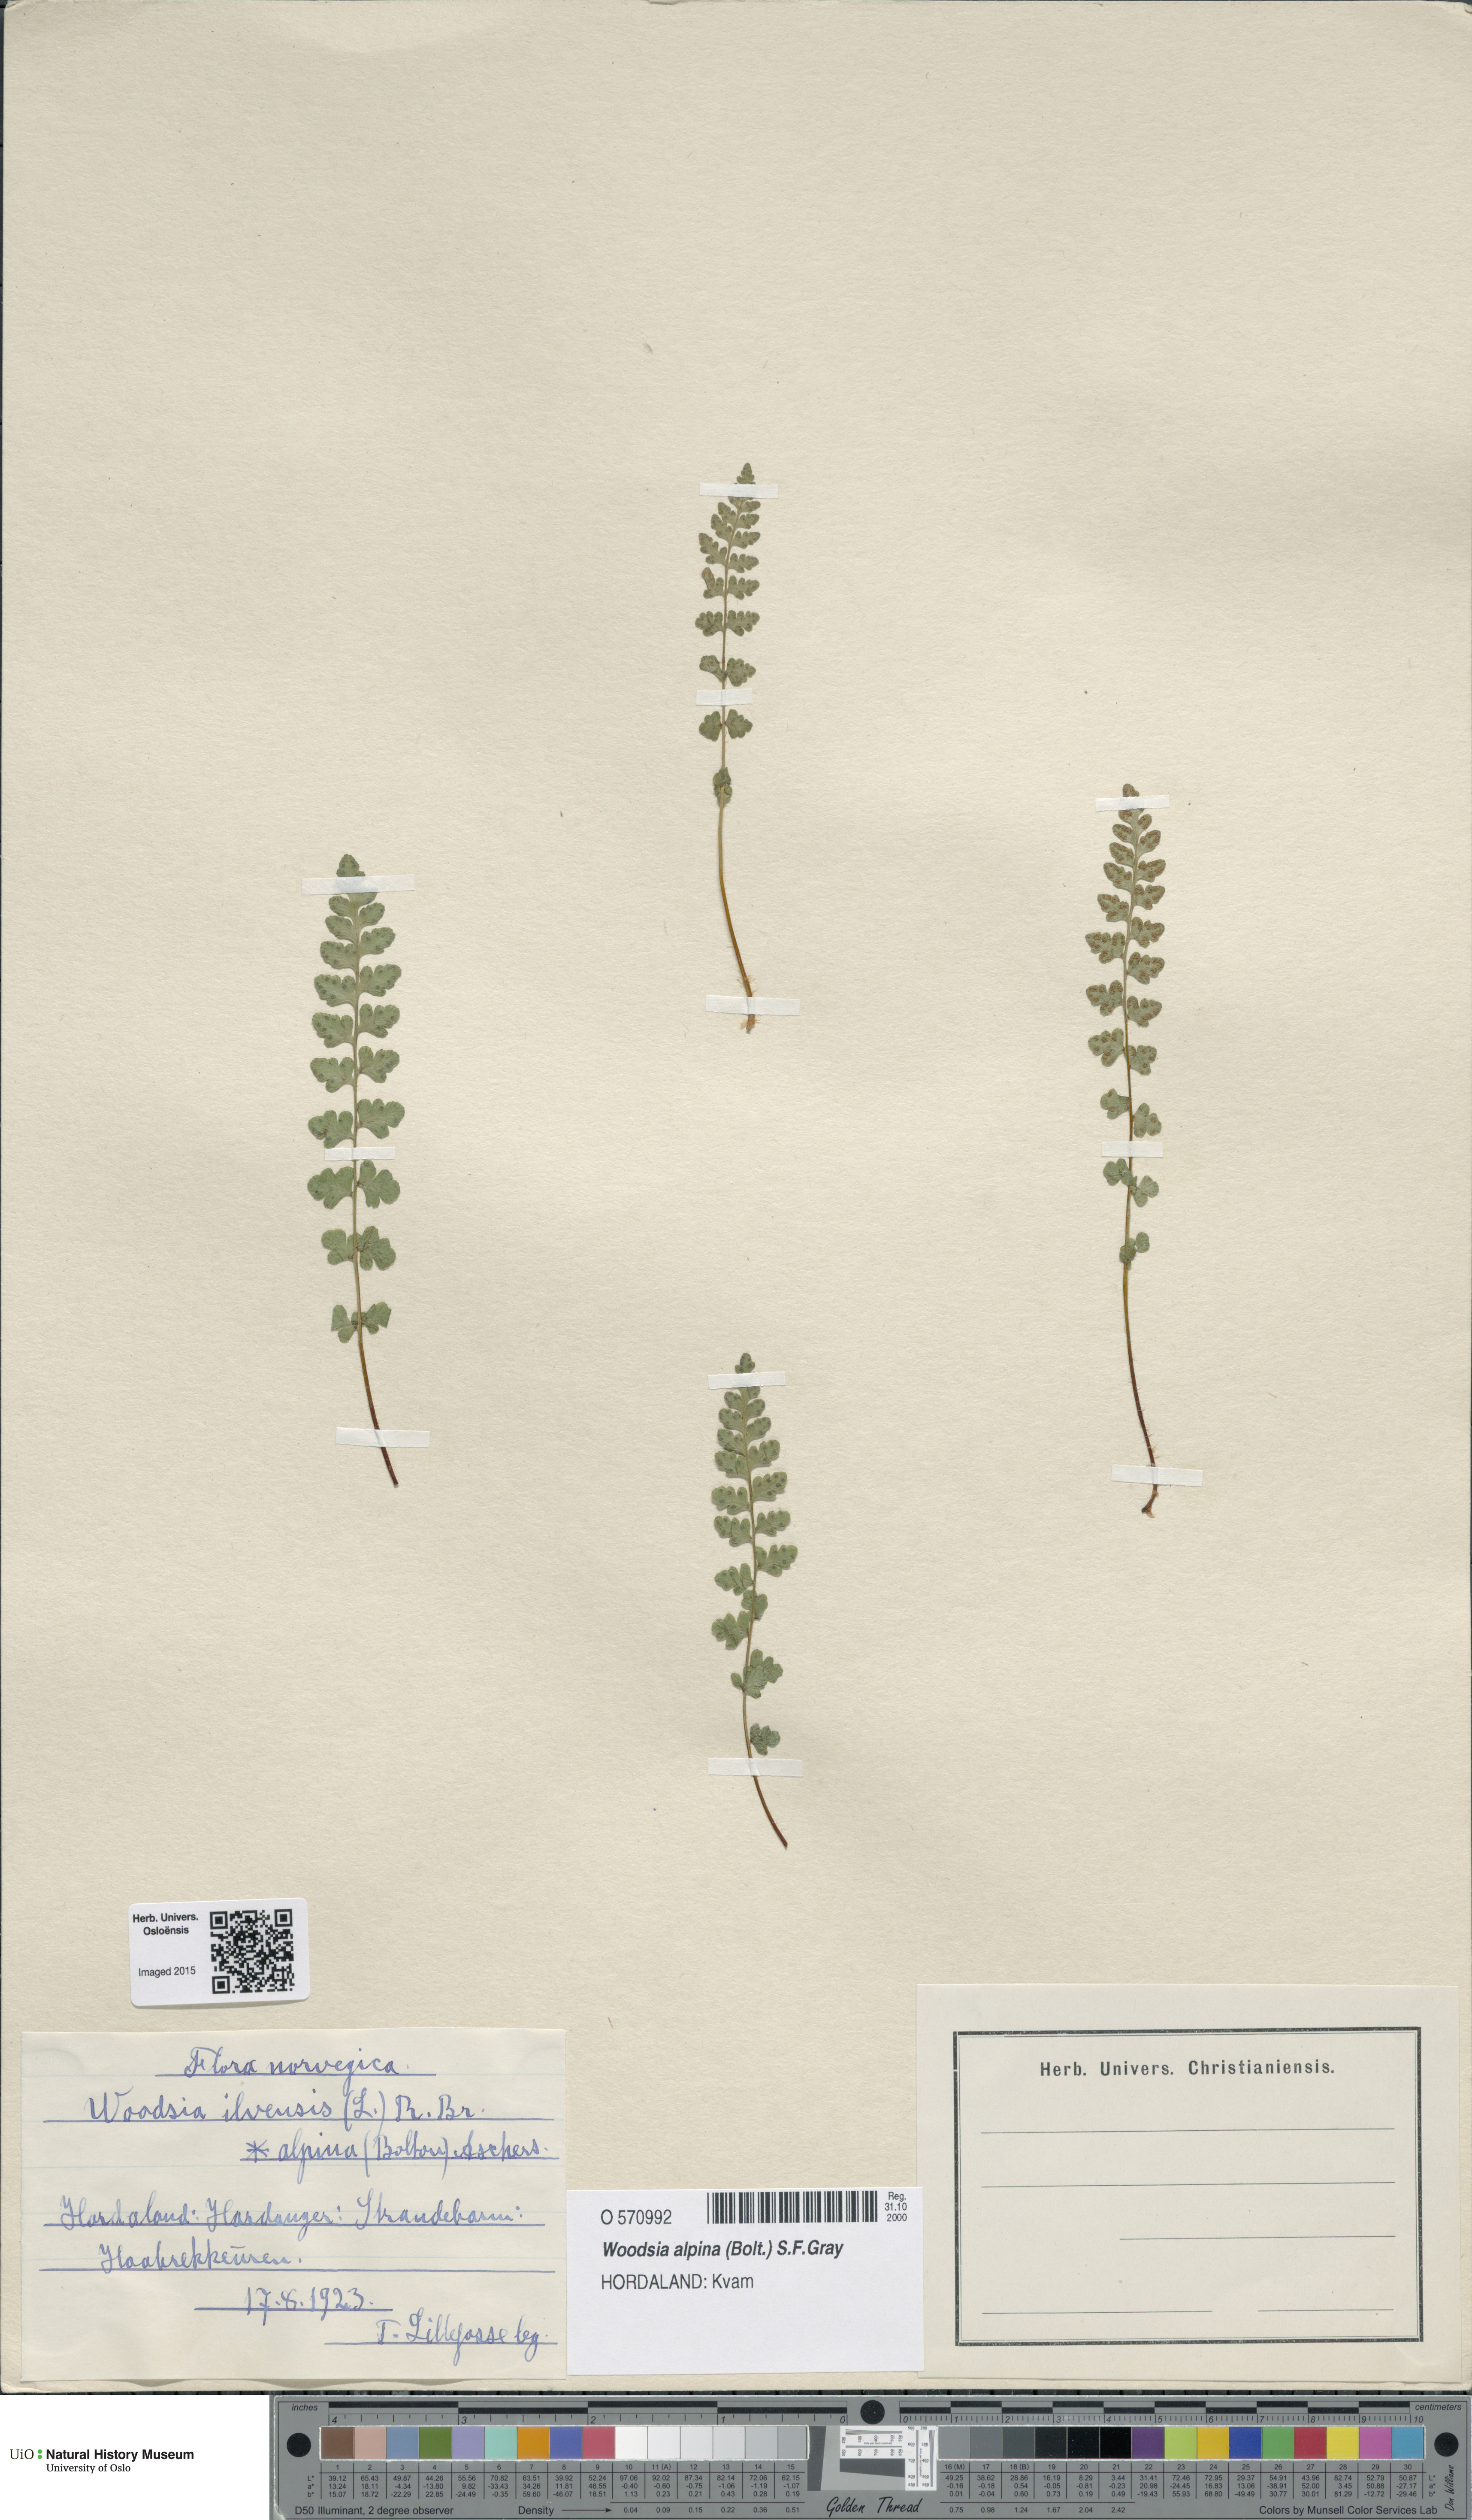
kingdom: Plantae
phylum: Tracheophyta
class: Polypodiopsida
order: Polypodiales
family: Woodsiaceae
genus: Woodsia
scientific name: Woodsia alpina
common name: Alpine woodsia
